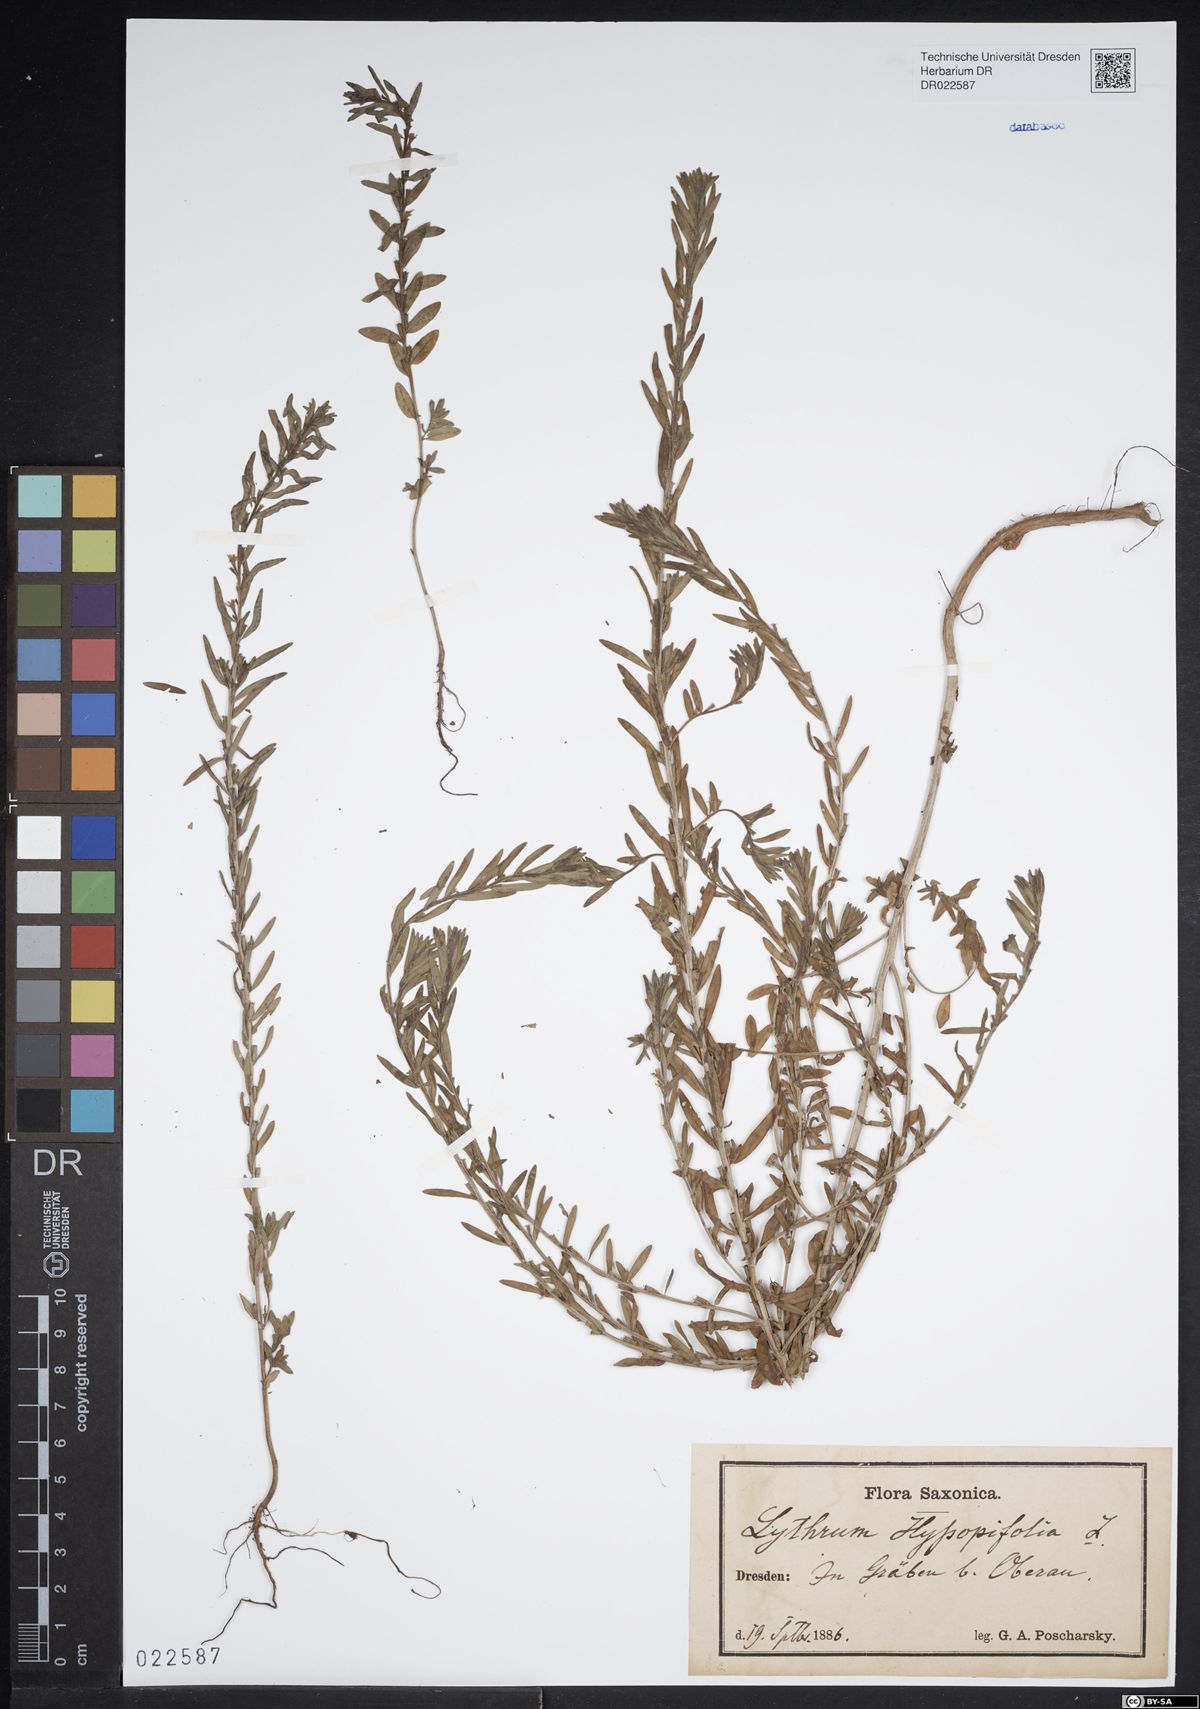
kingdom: Plantae
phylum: Tracheophyta
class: Magnoliopsida
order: Myrtales
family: Lythraceae
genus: Lythrum
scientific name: Lythrum hyssopifolia
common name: Grass-poly
